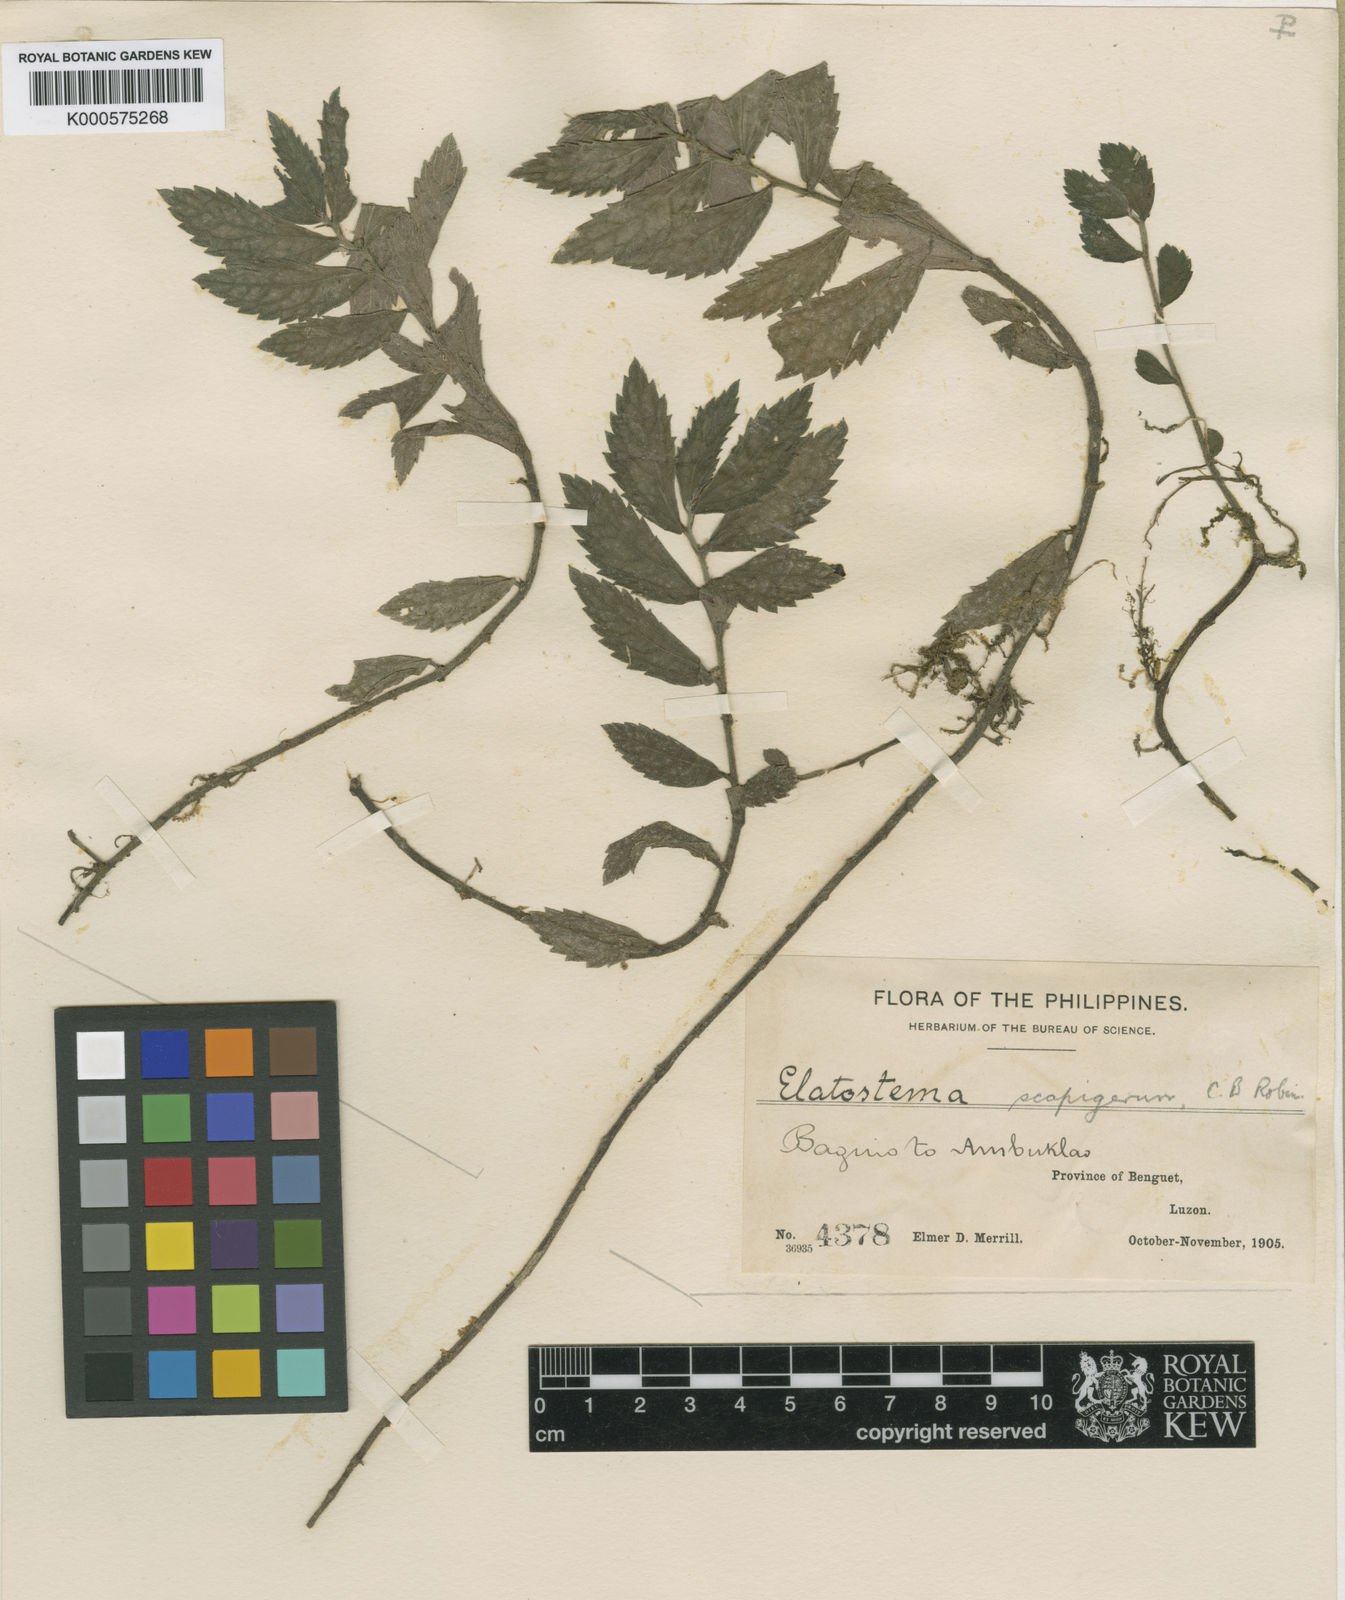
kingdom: Plantae
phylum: Tracheophyta
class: Magnoliopsida
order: Rosales
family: Urticaceae
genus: Elatostema
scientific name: Elatostema scapigerum
